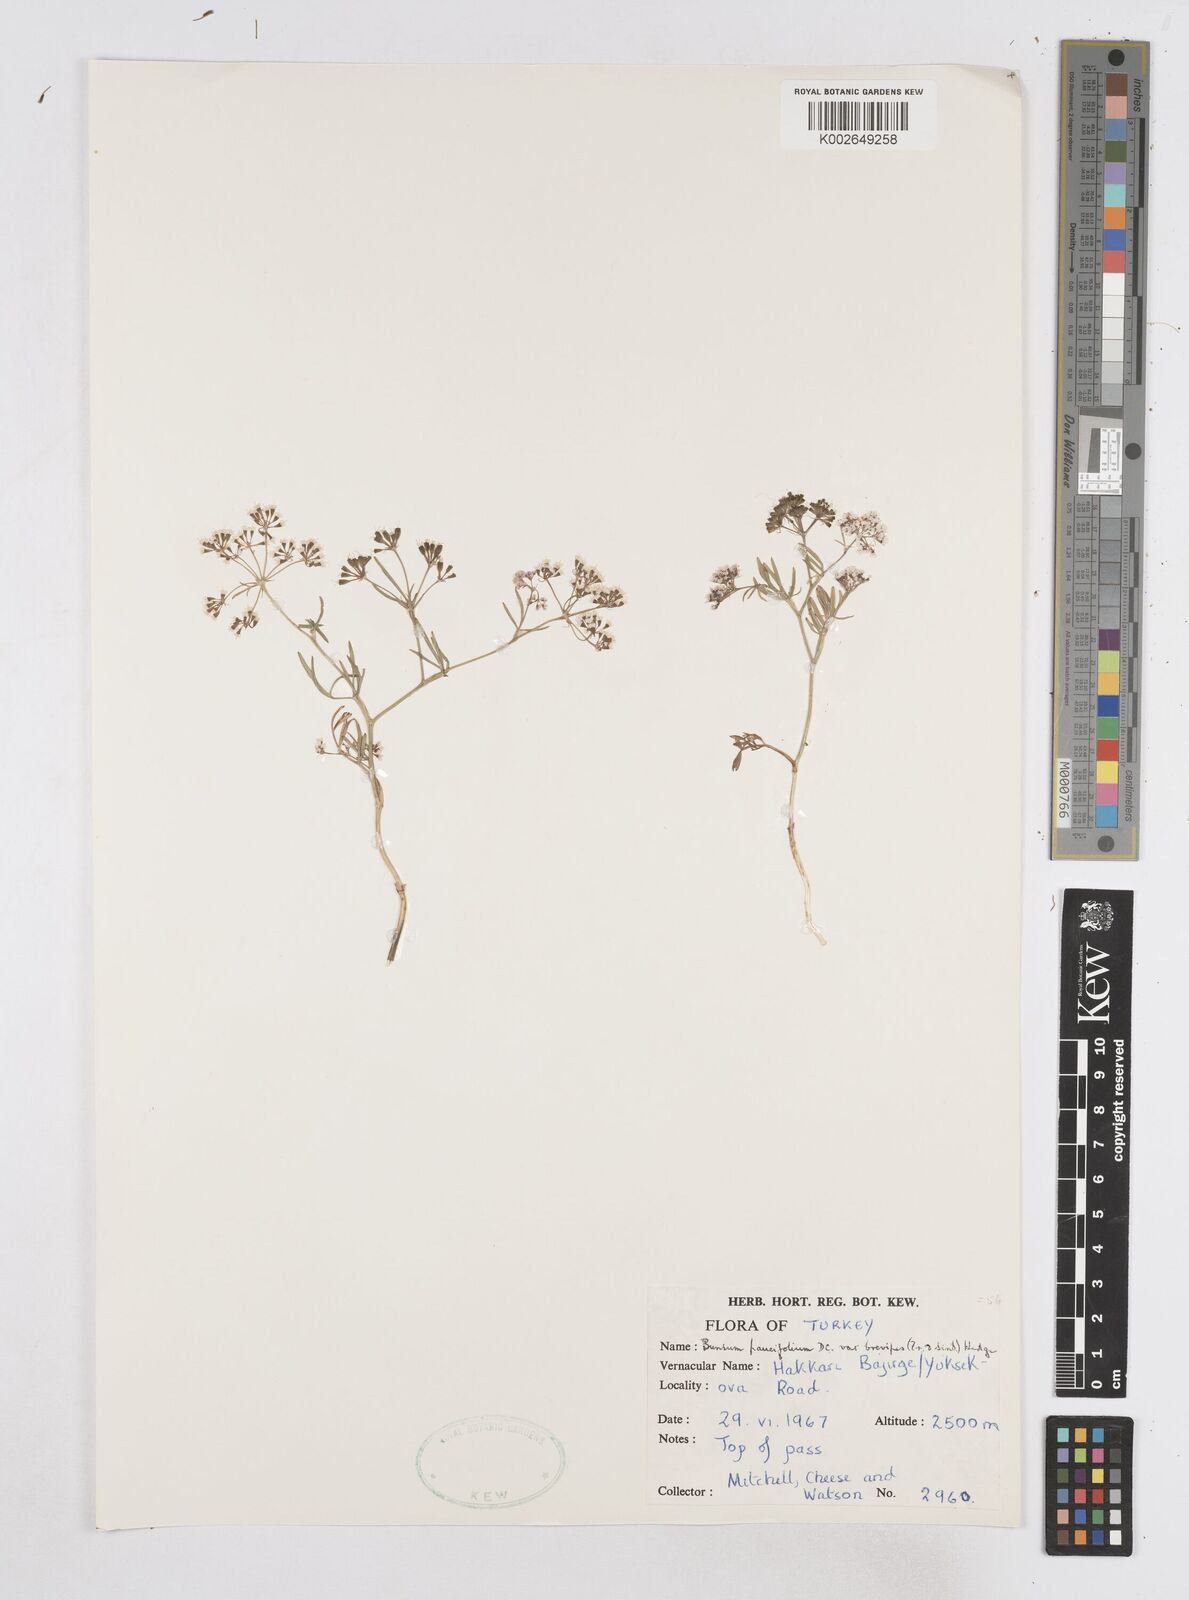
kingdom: Plantae
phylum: Tracheophyta
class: Magnoliopsida
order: Apiales
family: Apiaceae
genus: Bunium
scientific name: Bunium elegans
